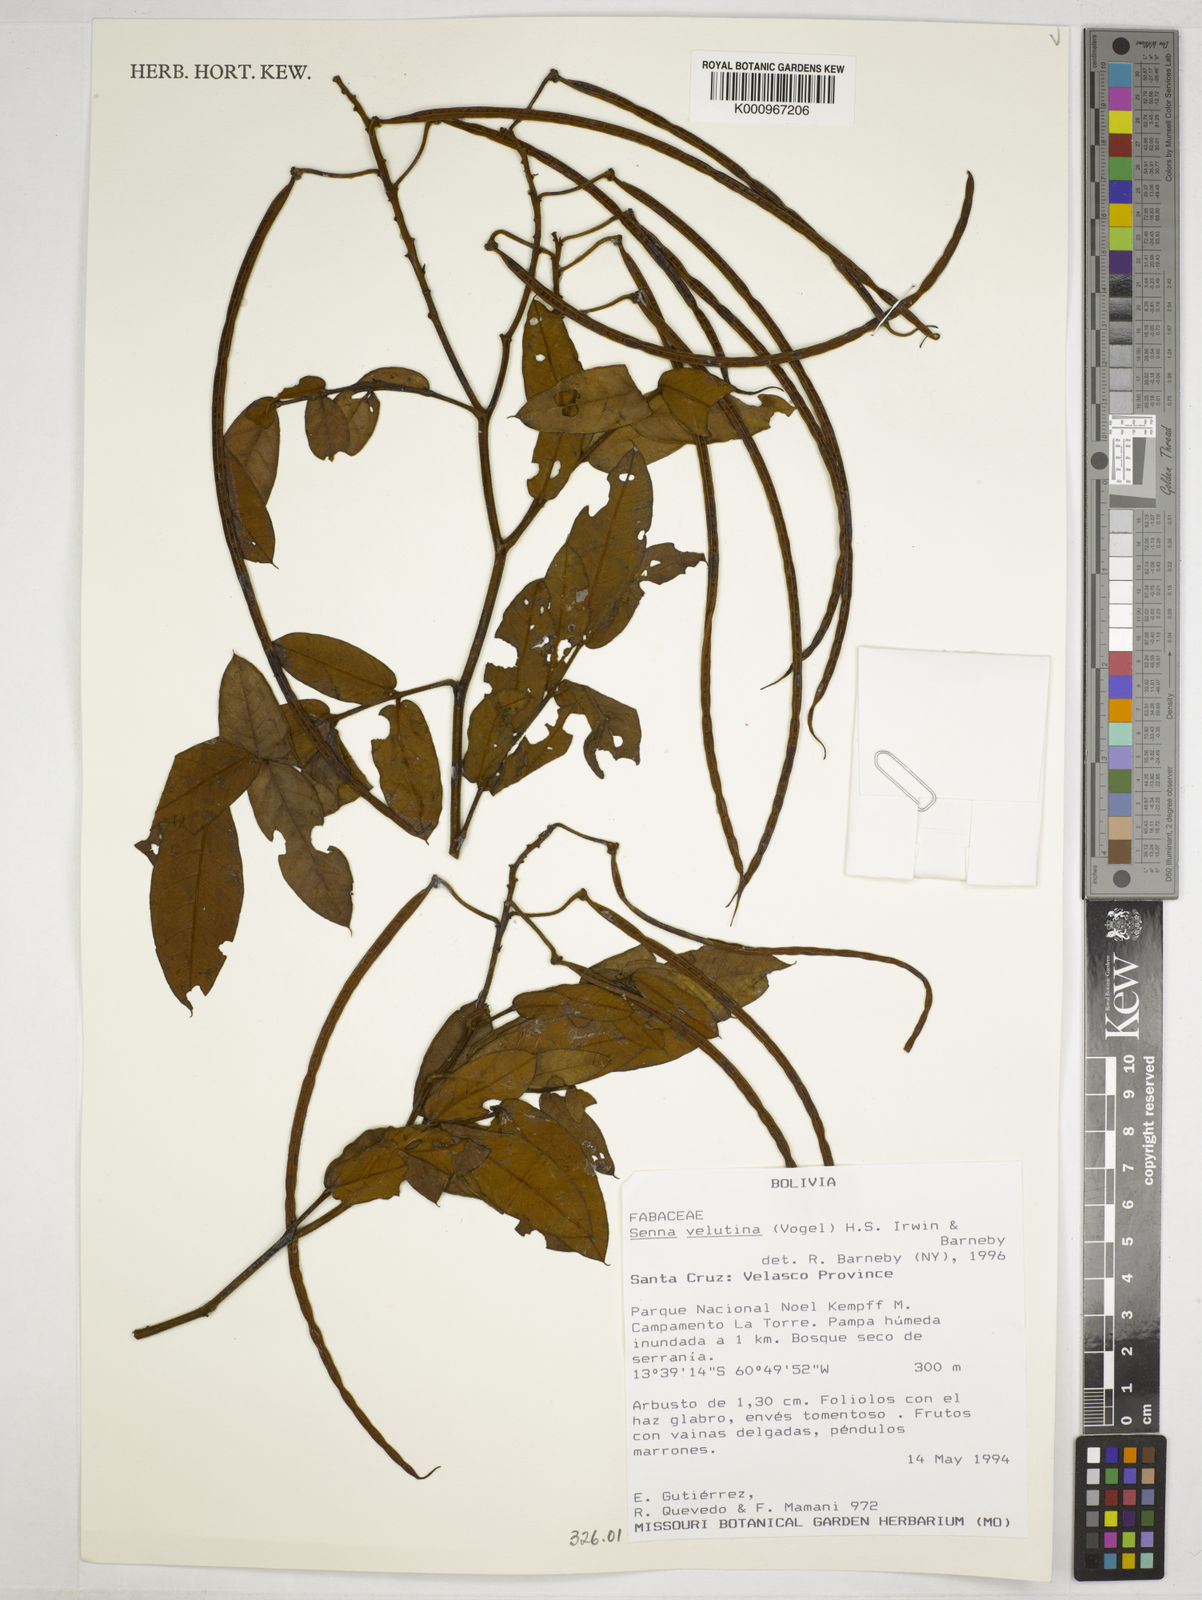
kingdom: Plantae
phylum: Tracheophyta
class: Magnoliopsida
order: Fabales
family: Fabaceae
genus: Senna
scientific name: Senna velutina
